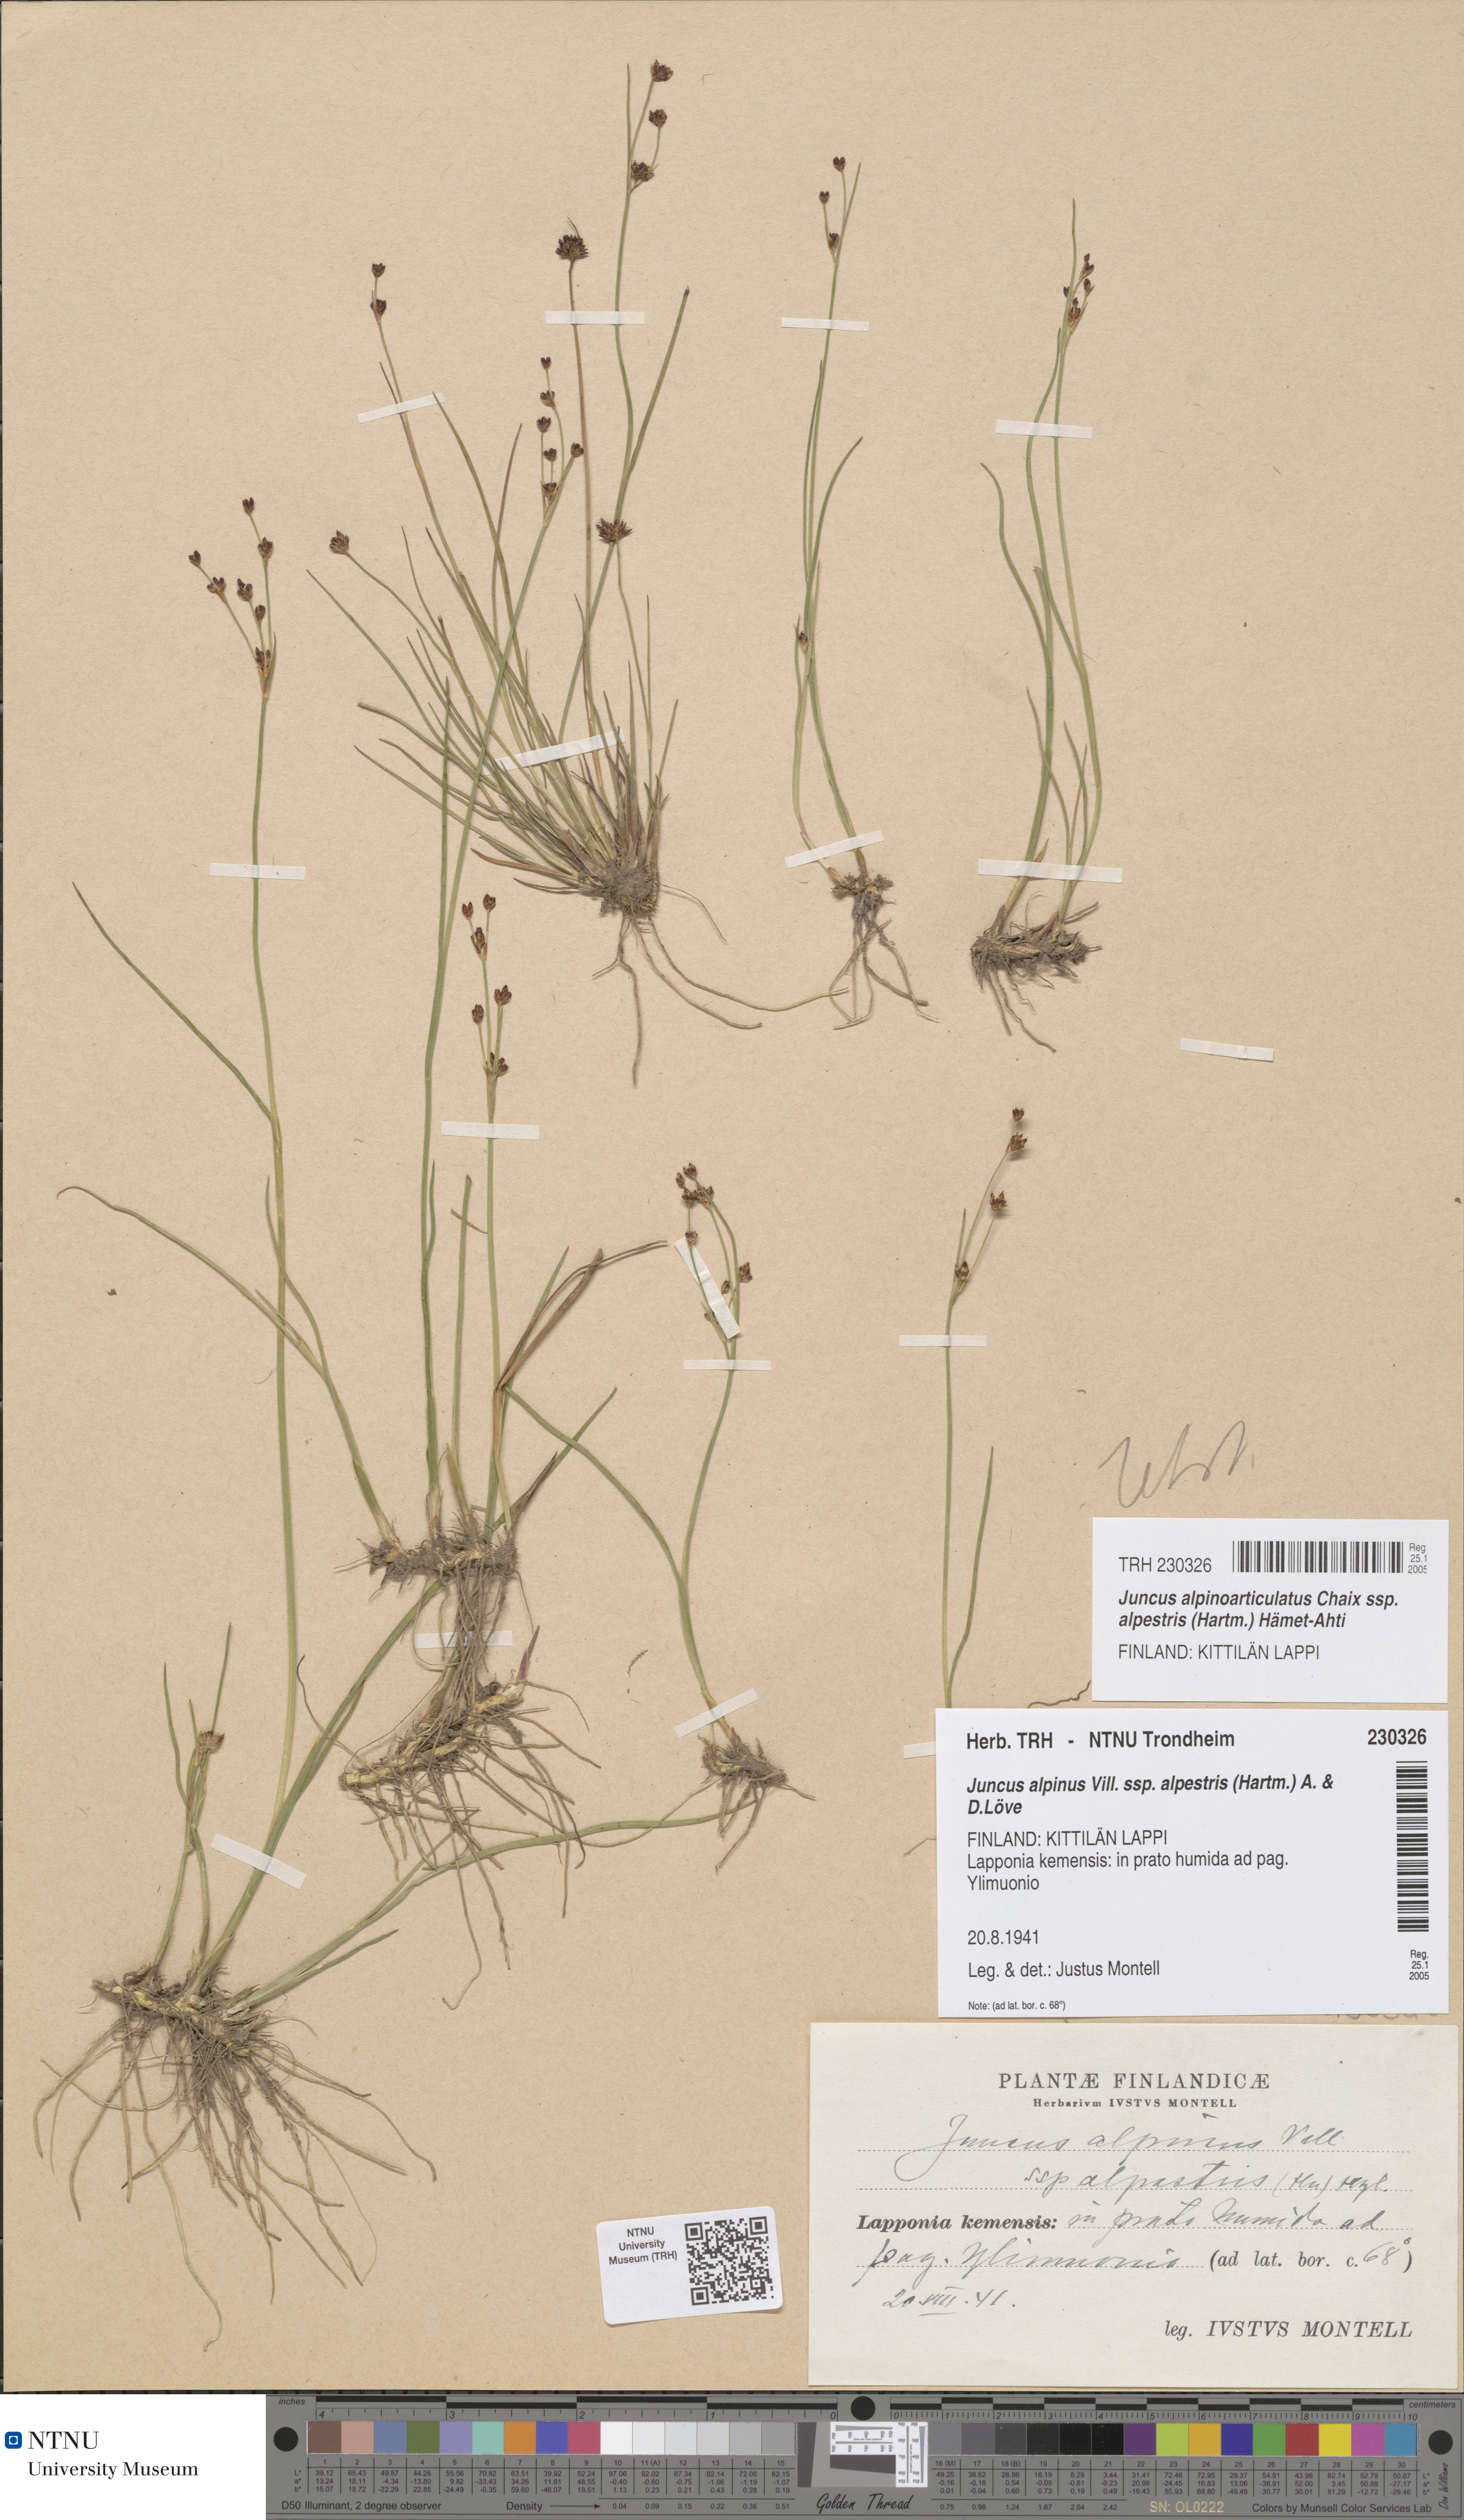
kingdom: Plantae
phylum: Tracheophyta
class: Liliopsida
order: Poales
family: Juncaceae
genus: Juncus
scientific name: Juncus alpinoarticulatus
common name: Alpine rush
